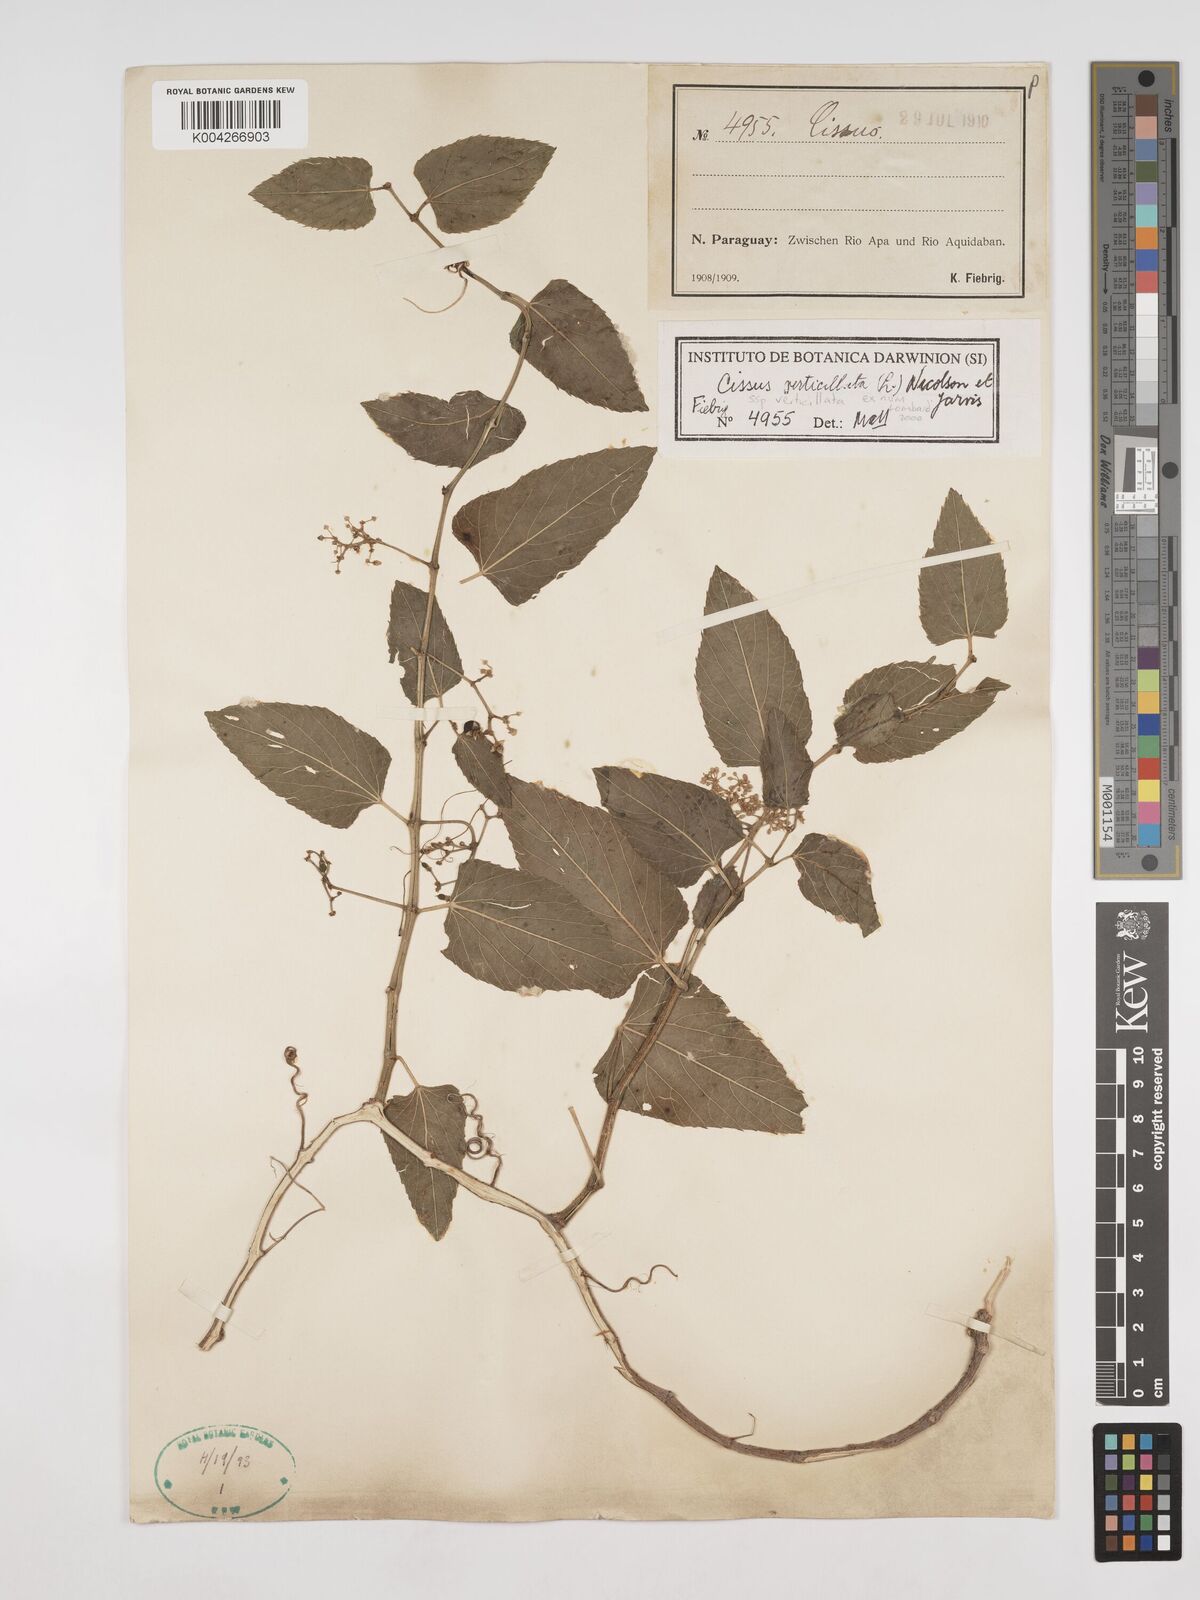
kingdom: Plantae
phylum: Tracheophyta
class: Magnoliopsida
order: Vitales
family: Vitaceae
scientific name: Vitaceae
